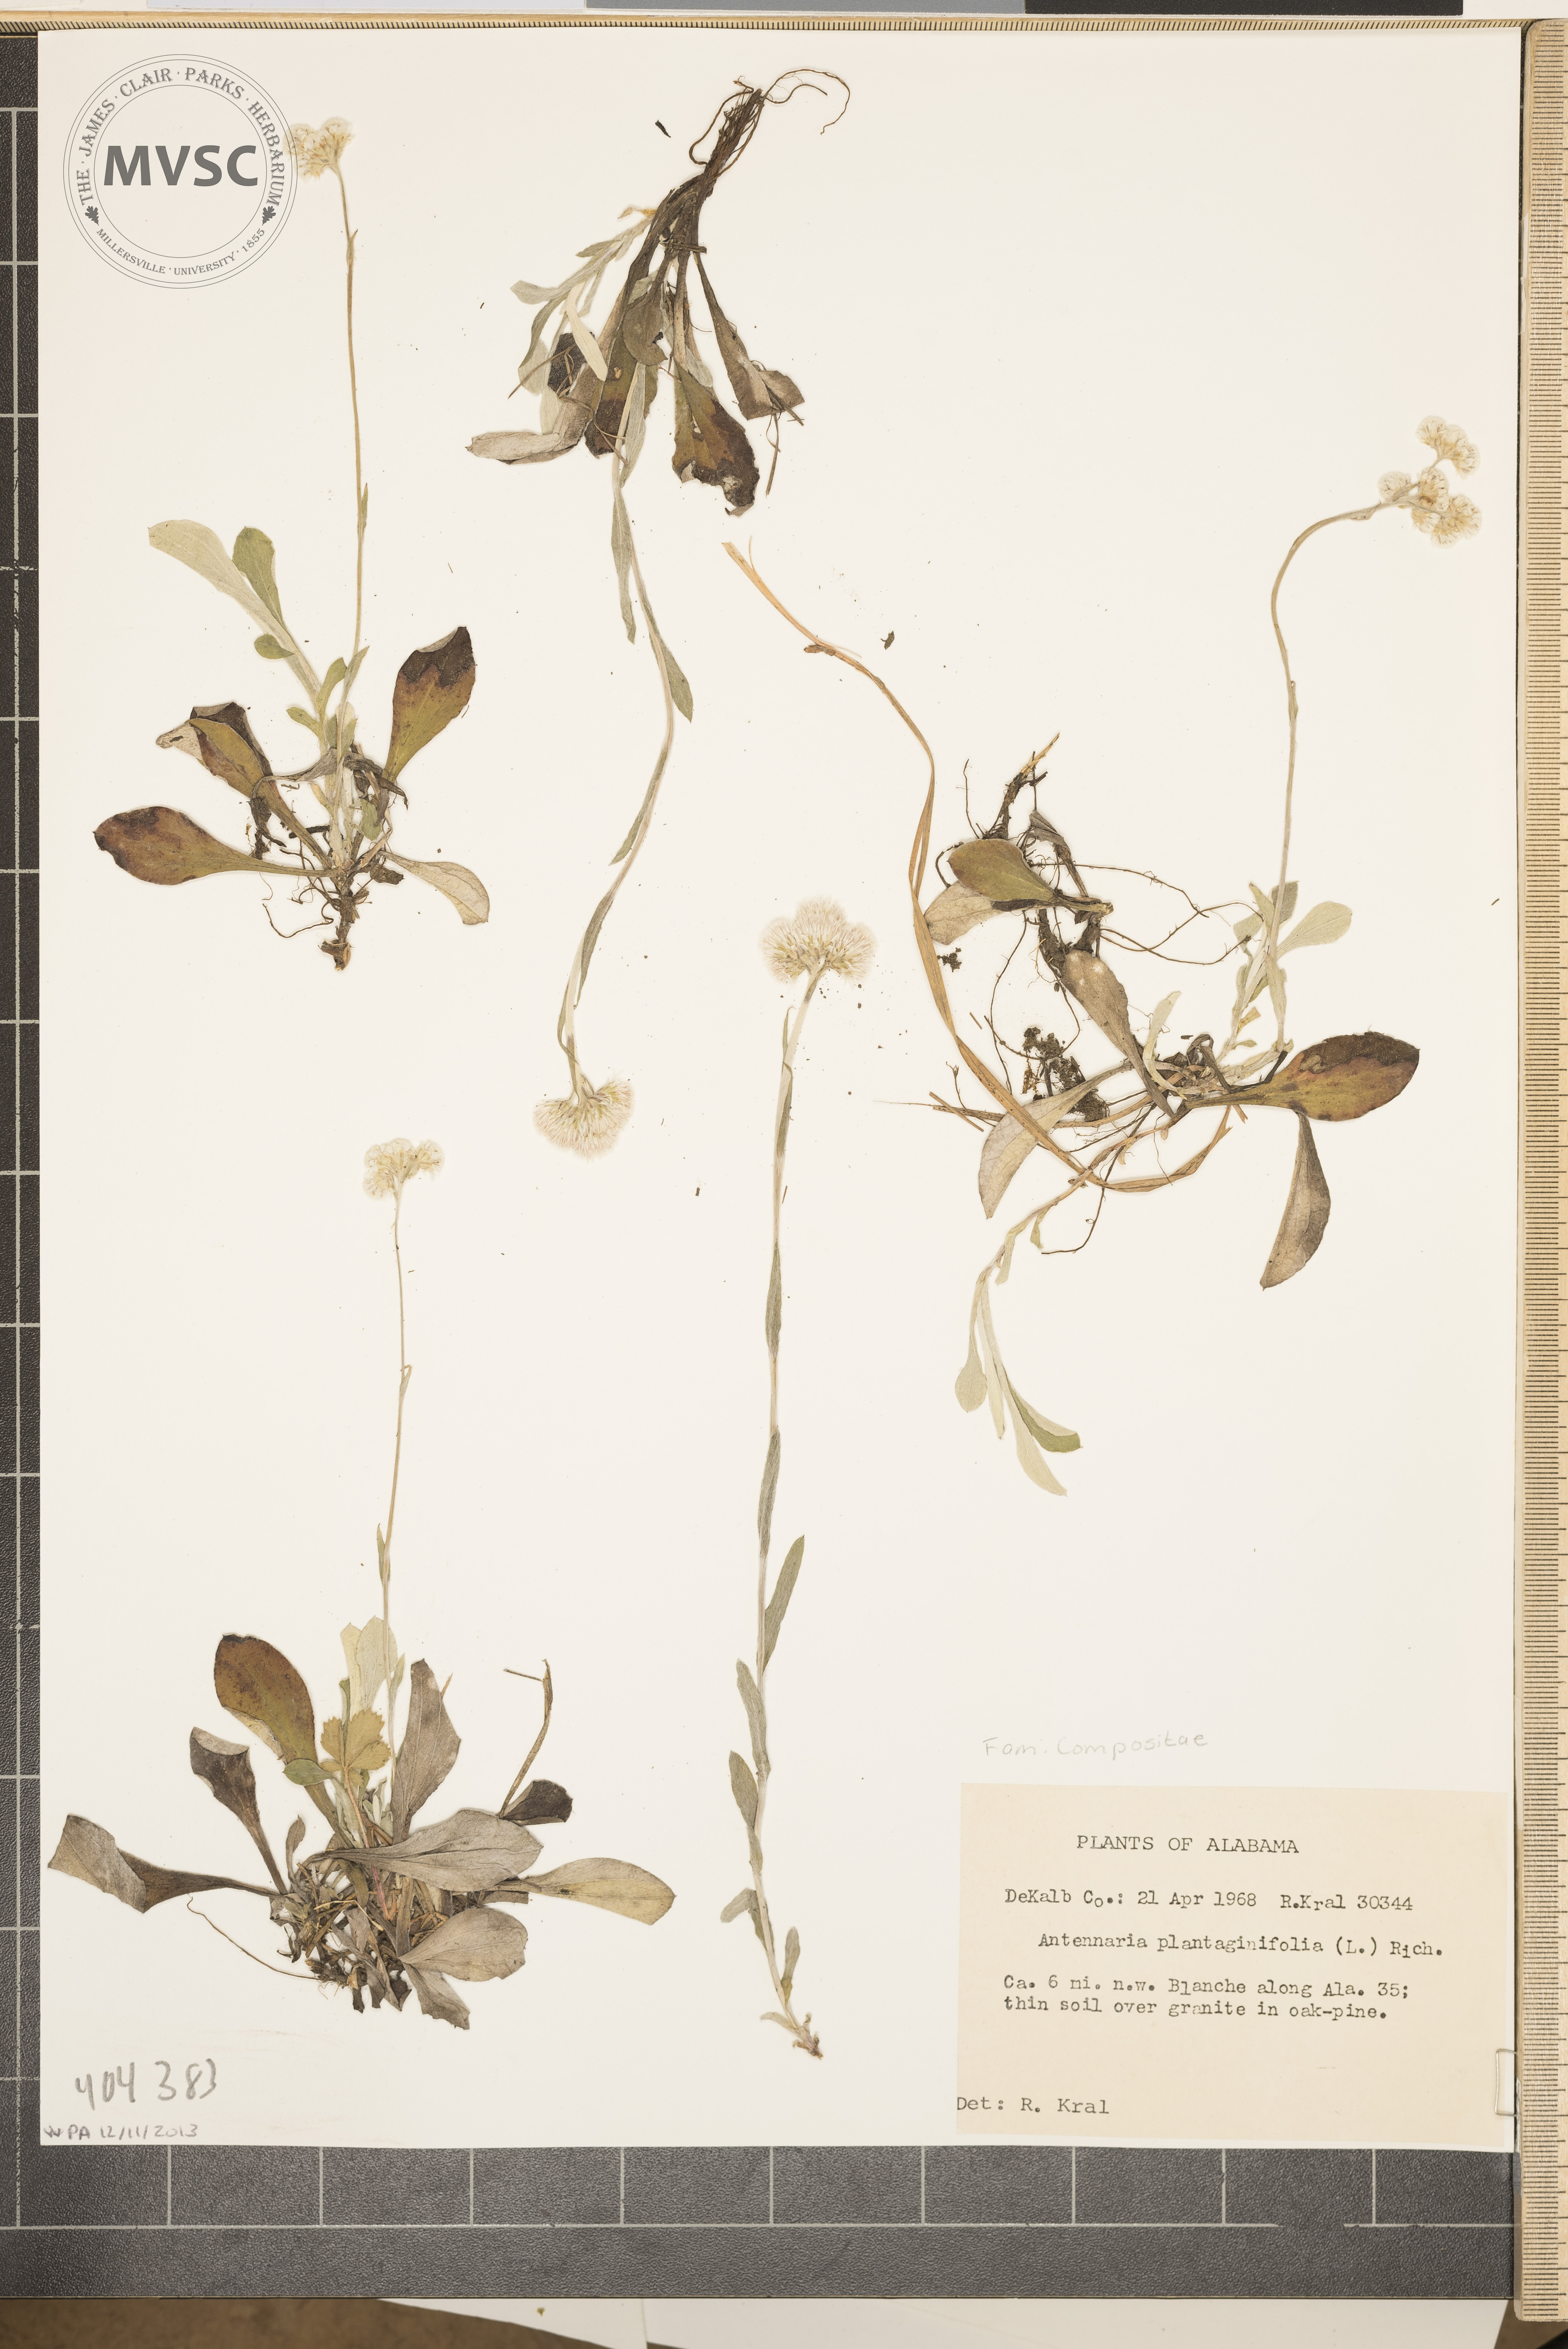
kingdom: Plantae
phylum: Tracheophyta
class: Magnoliopsida
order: Asterales
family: Asteraceae
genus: Antennaria
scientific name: Antennaria plantaginifolia
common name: Plantain-leaved pussytoes
